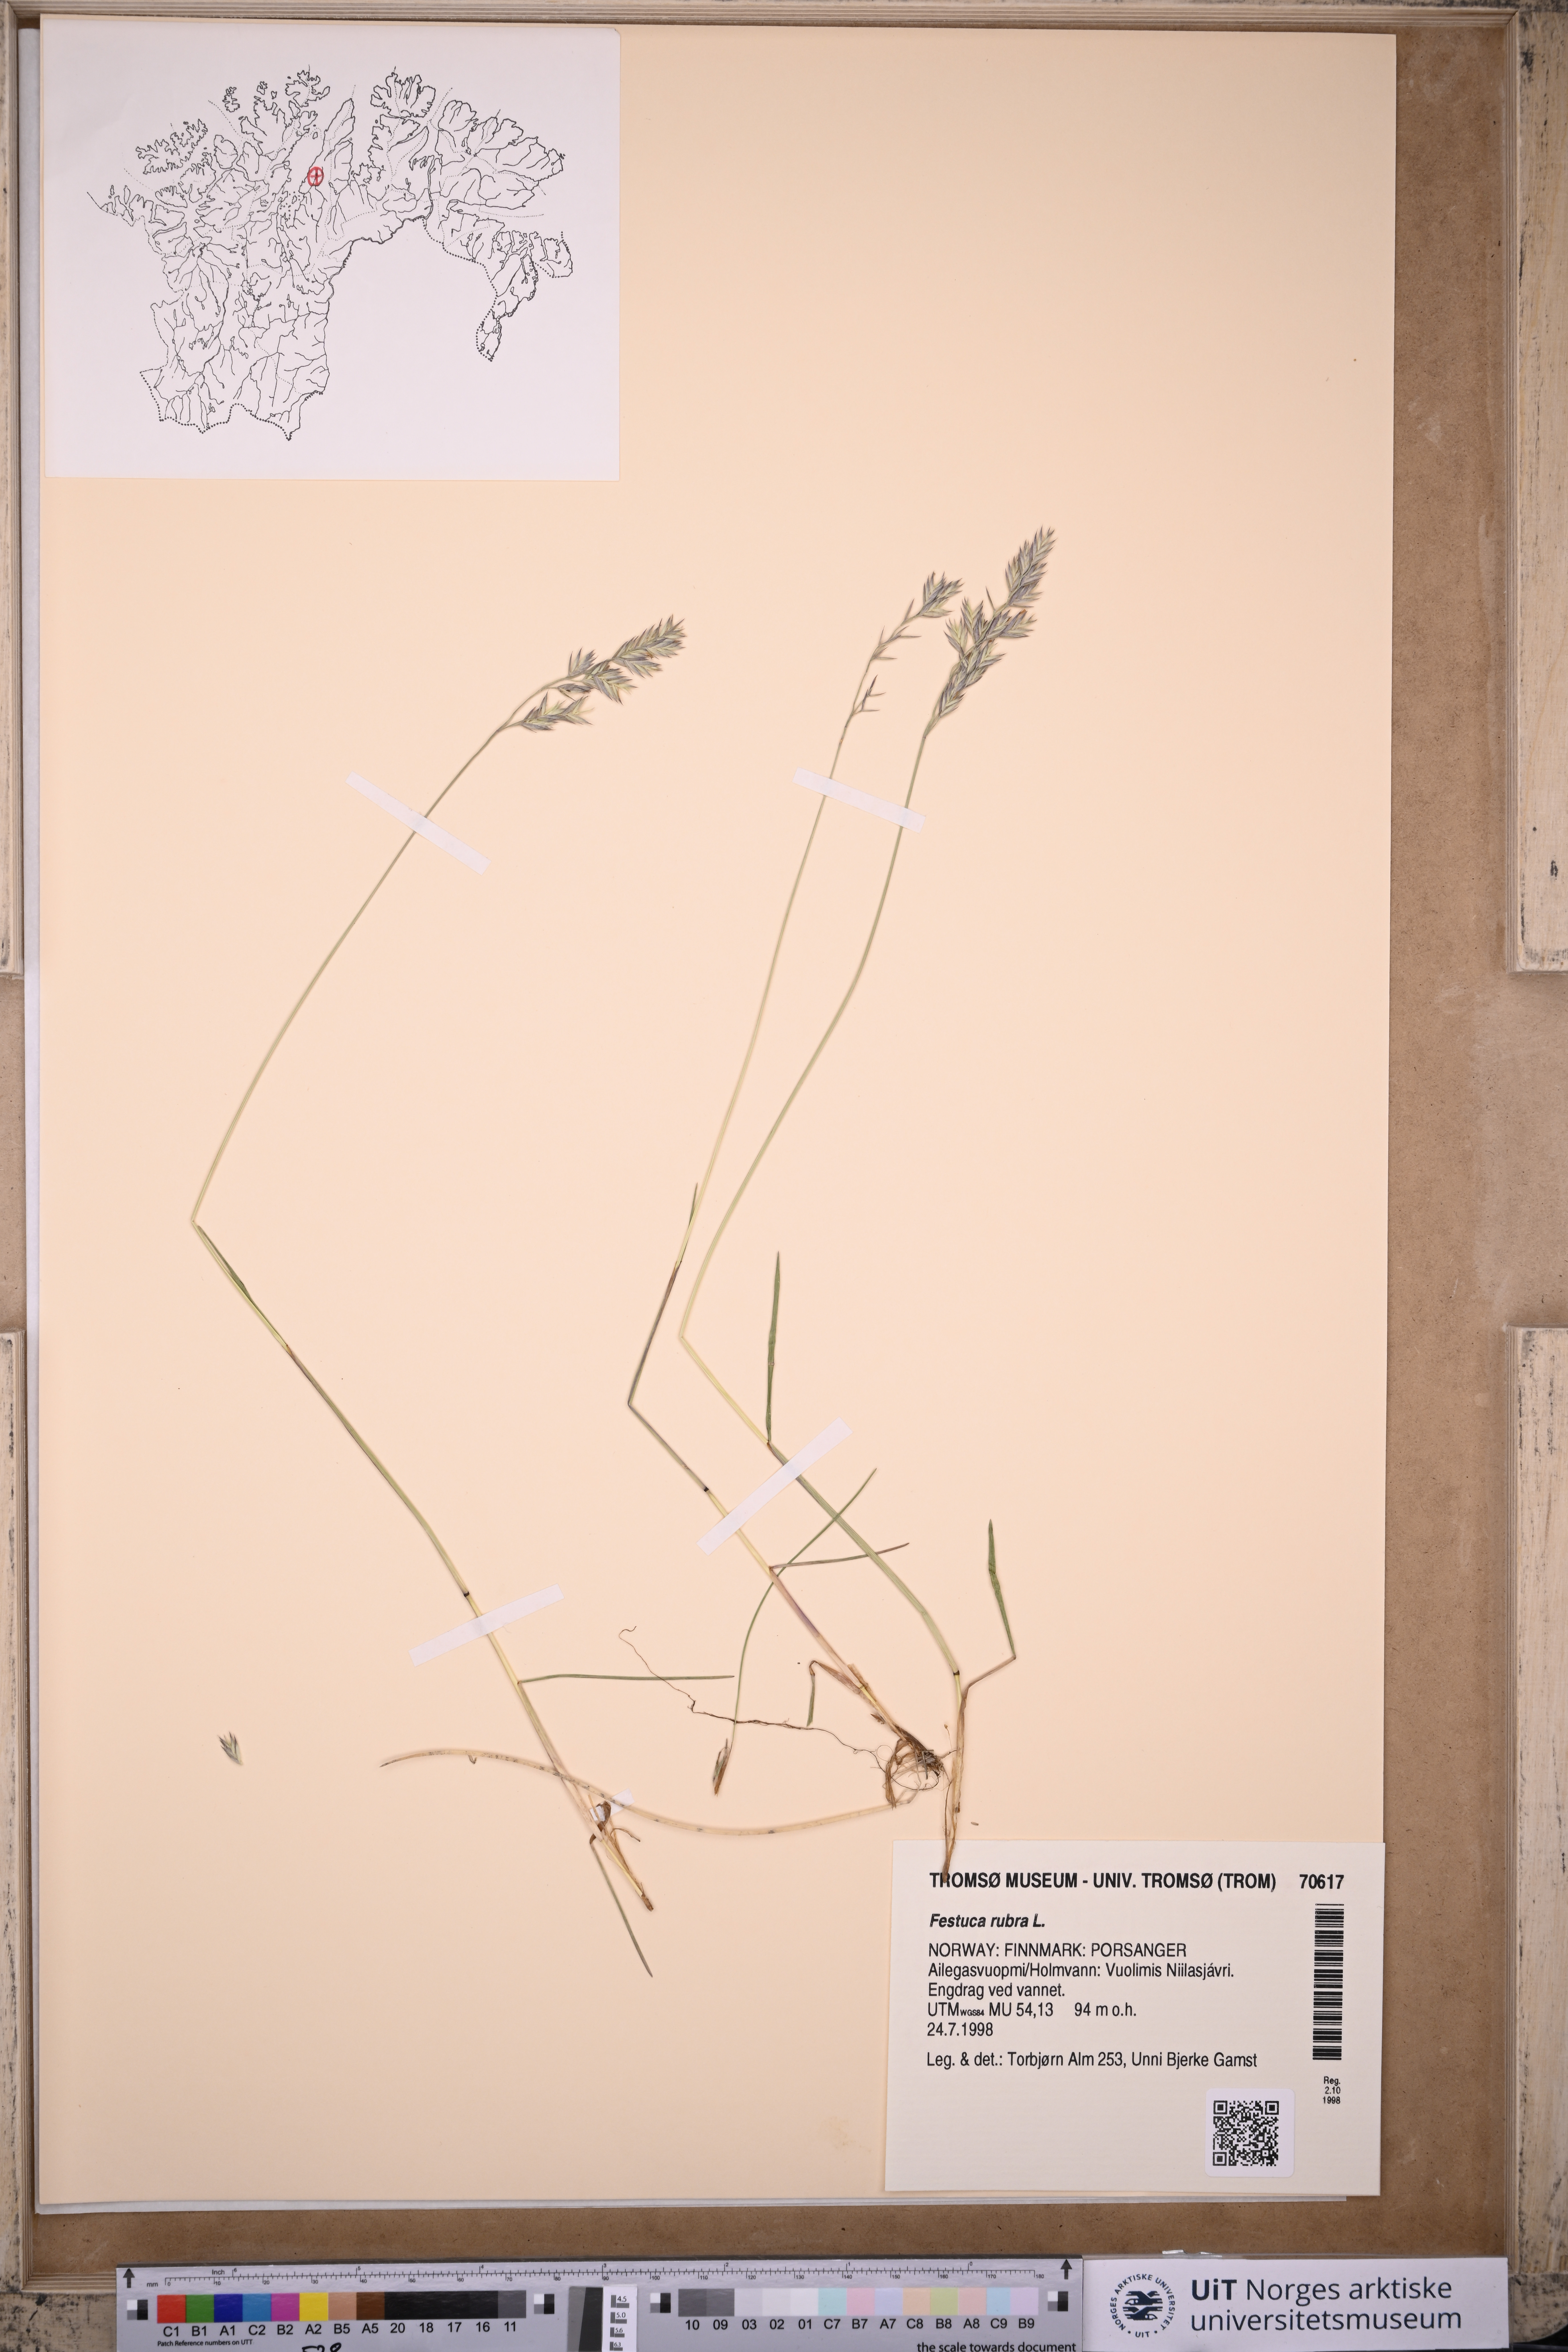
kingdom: Plantae
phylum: Tracheophyta
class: Liliopsida
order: Poales
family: Poaceae
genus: Festuca
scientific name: Festuca rubra
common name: Red fescue
